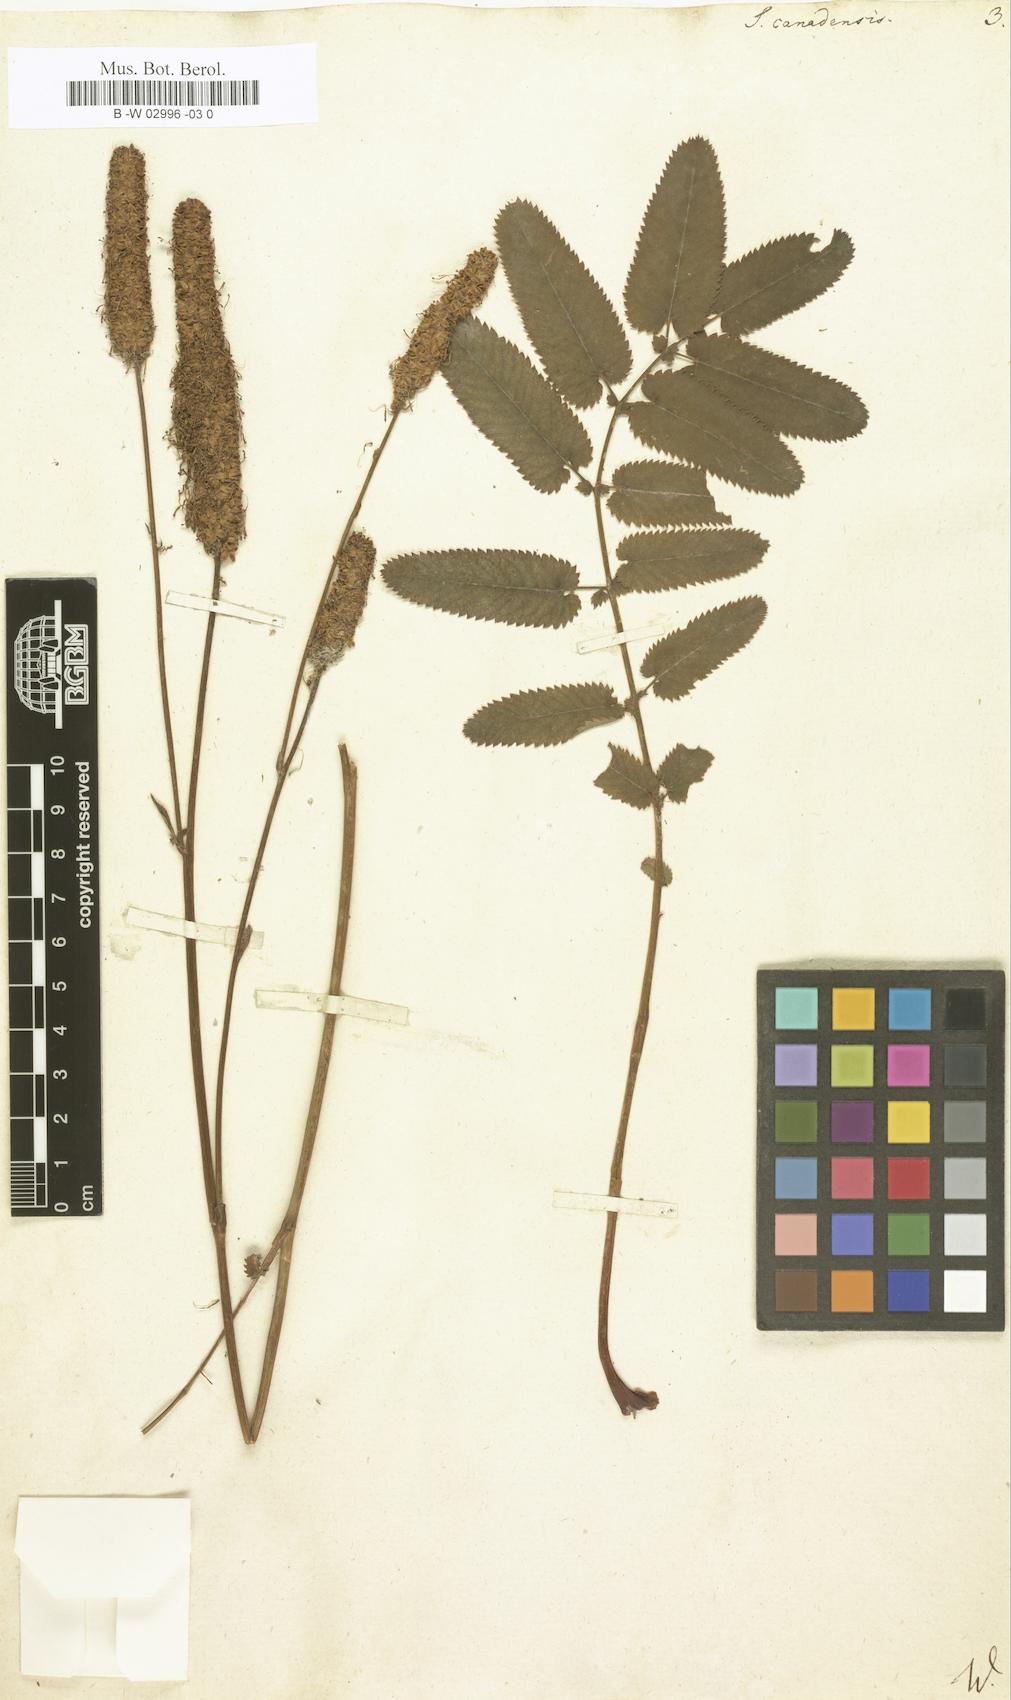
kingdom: Plantae
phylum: Tracheophyta
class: Magnoliopsida
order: Rosales
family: Rosaceae
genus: Sanguisorba
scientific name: Sanguisorba canadensis
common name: White burnet
